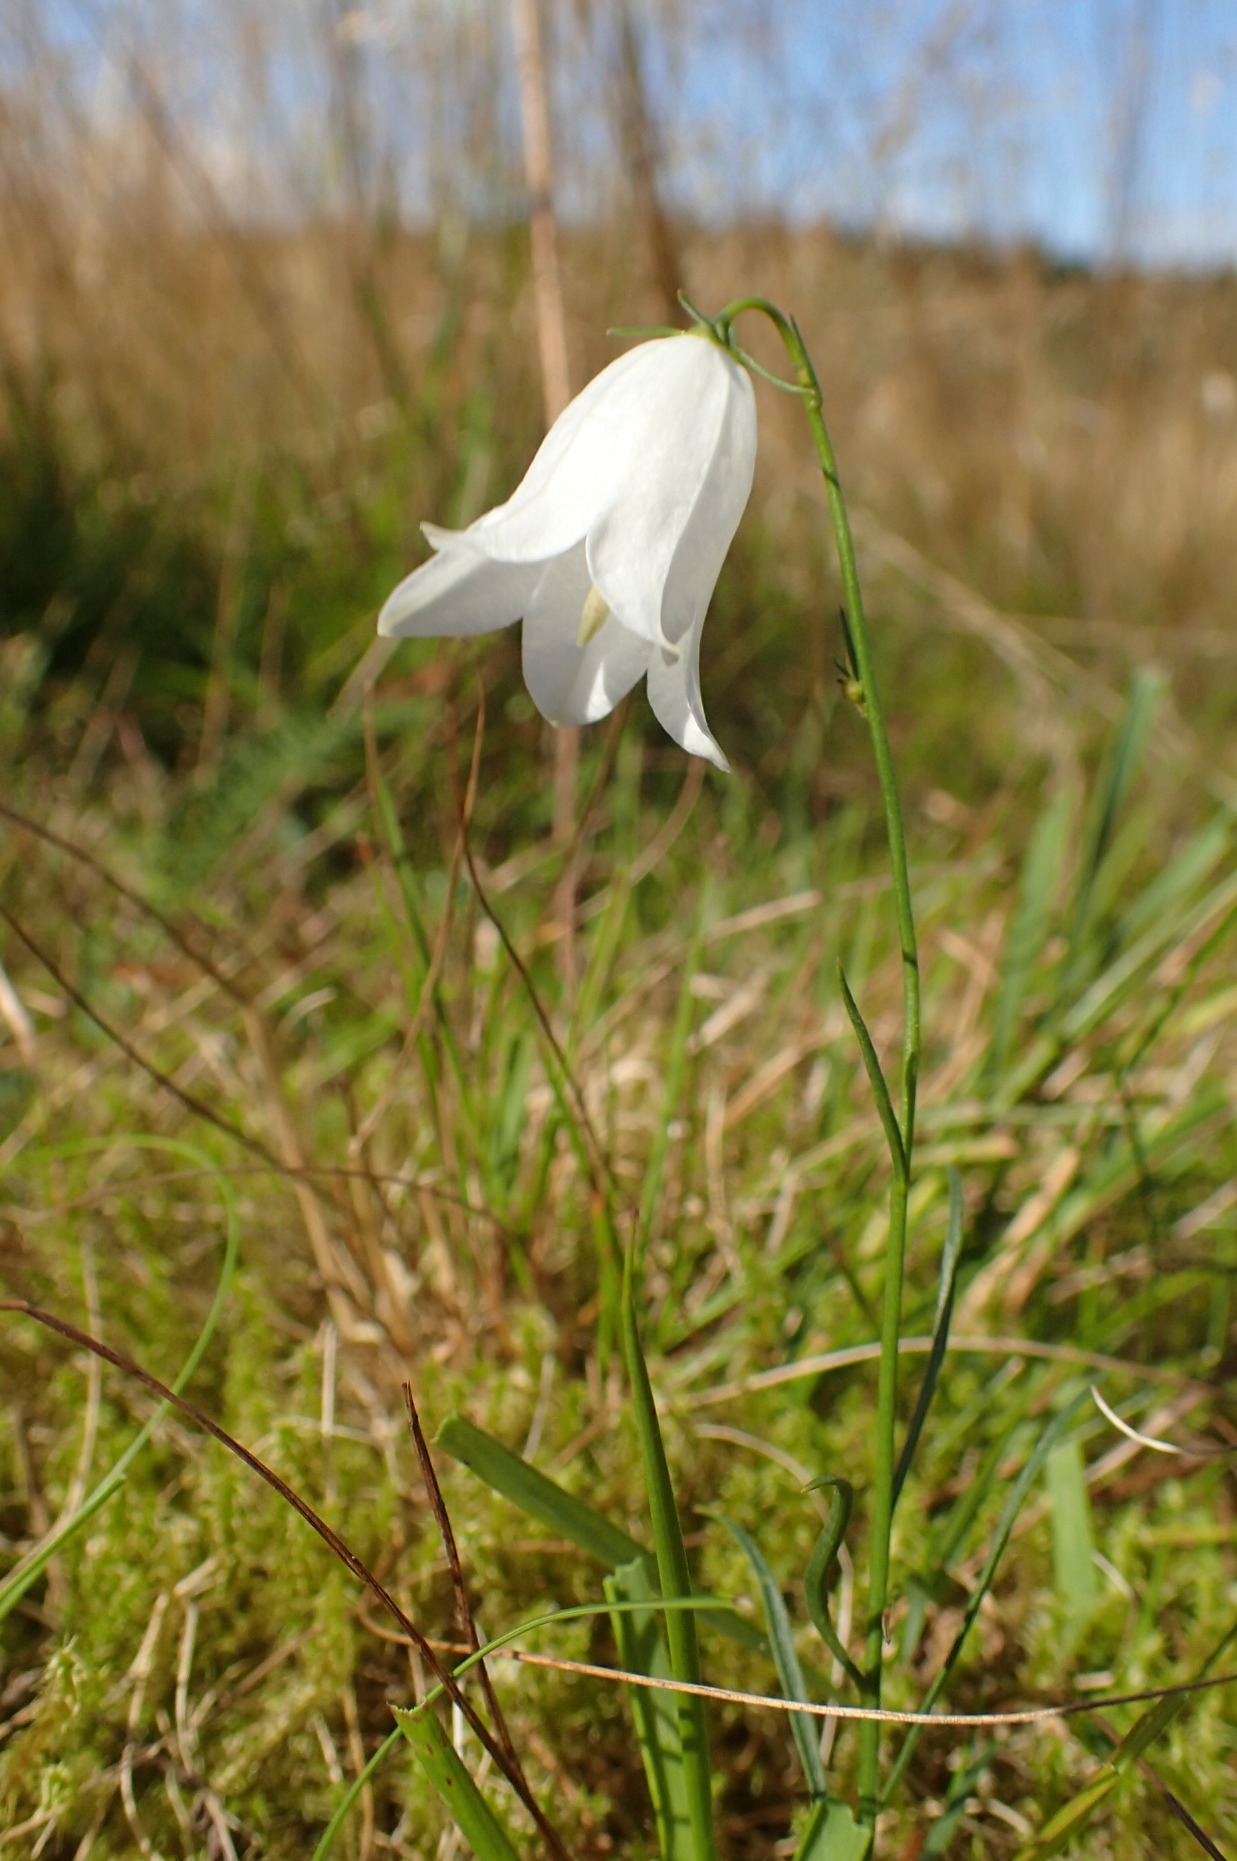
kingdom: Plantae
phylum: Tracheophyta
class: Magnoliopsida
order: Asterales
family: Campanulaceae
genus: Campanula
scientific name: Campanula rotundifolia
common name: Liden klokke
